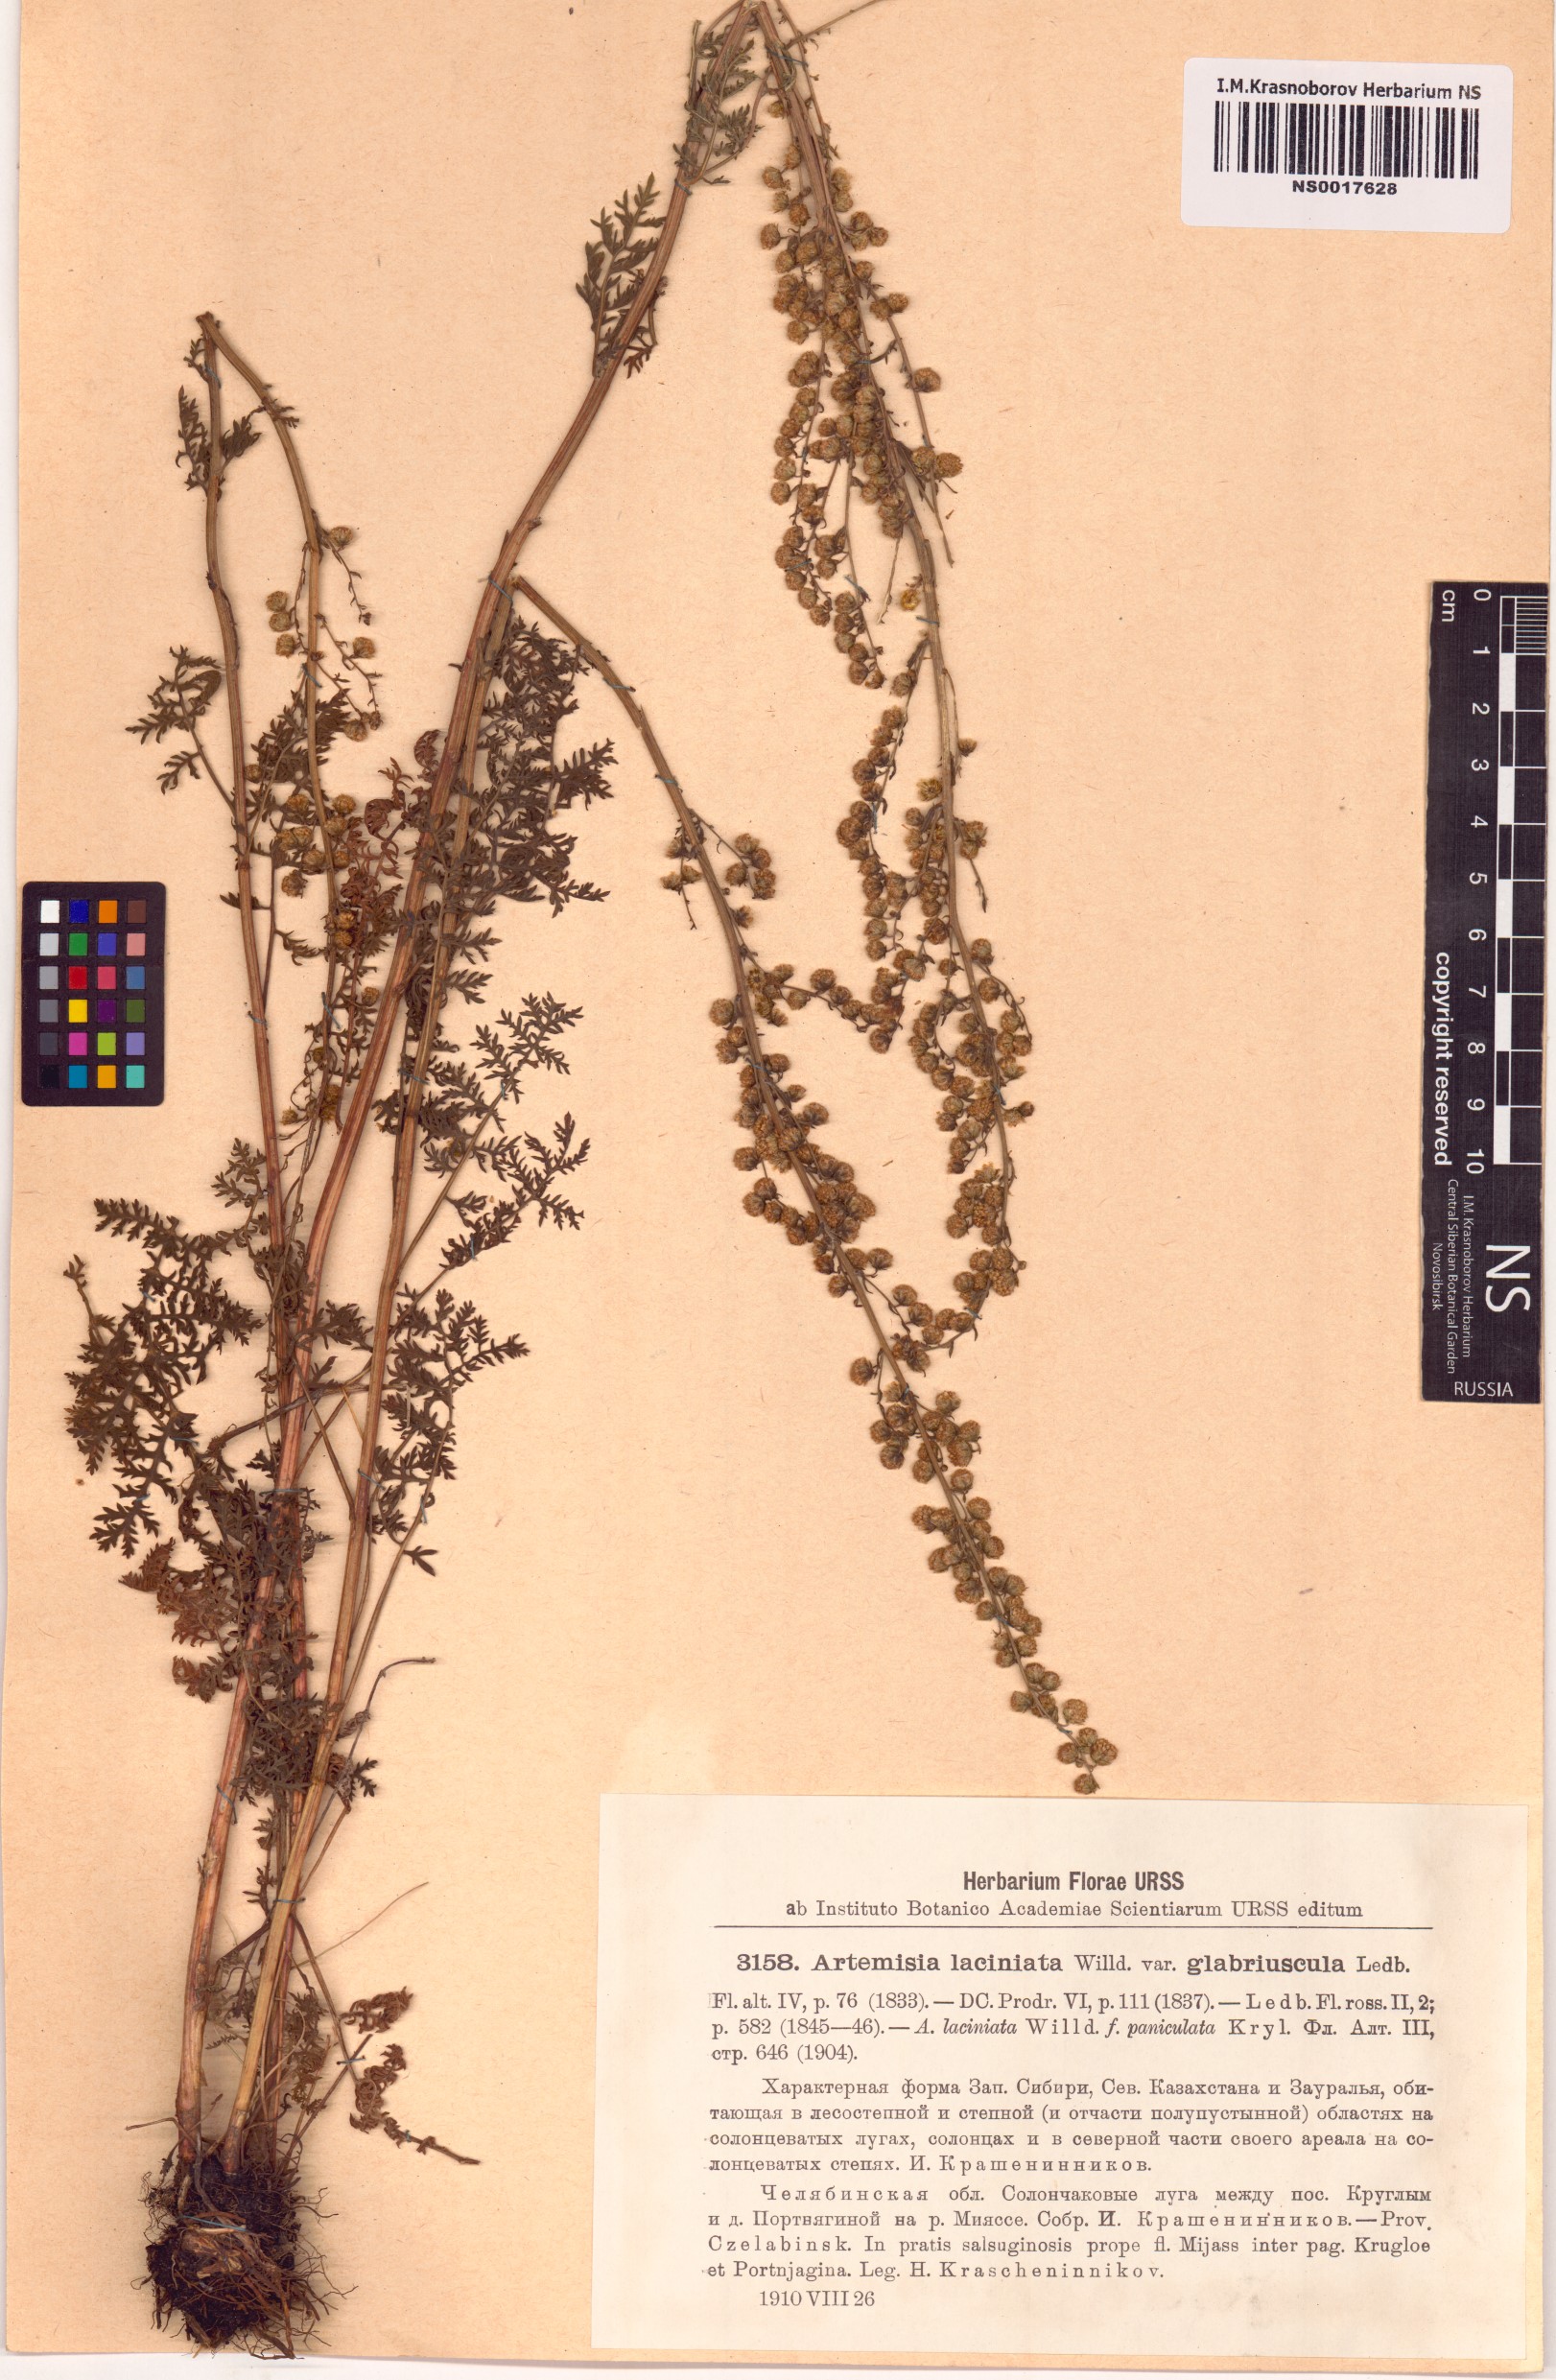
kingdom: Plantae
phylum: Tracheophyta
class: Magnoliopsida
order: Asterales
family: Asteraceae
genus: Artemisia
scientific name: Artemisia tanacetifolia
